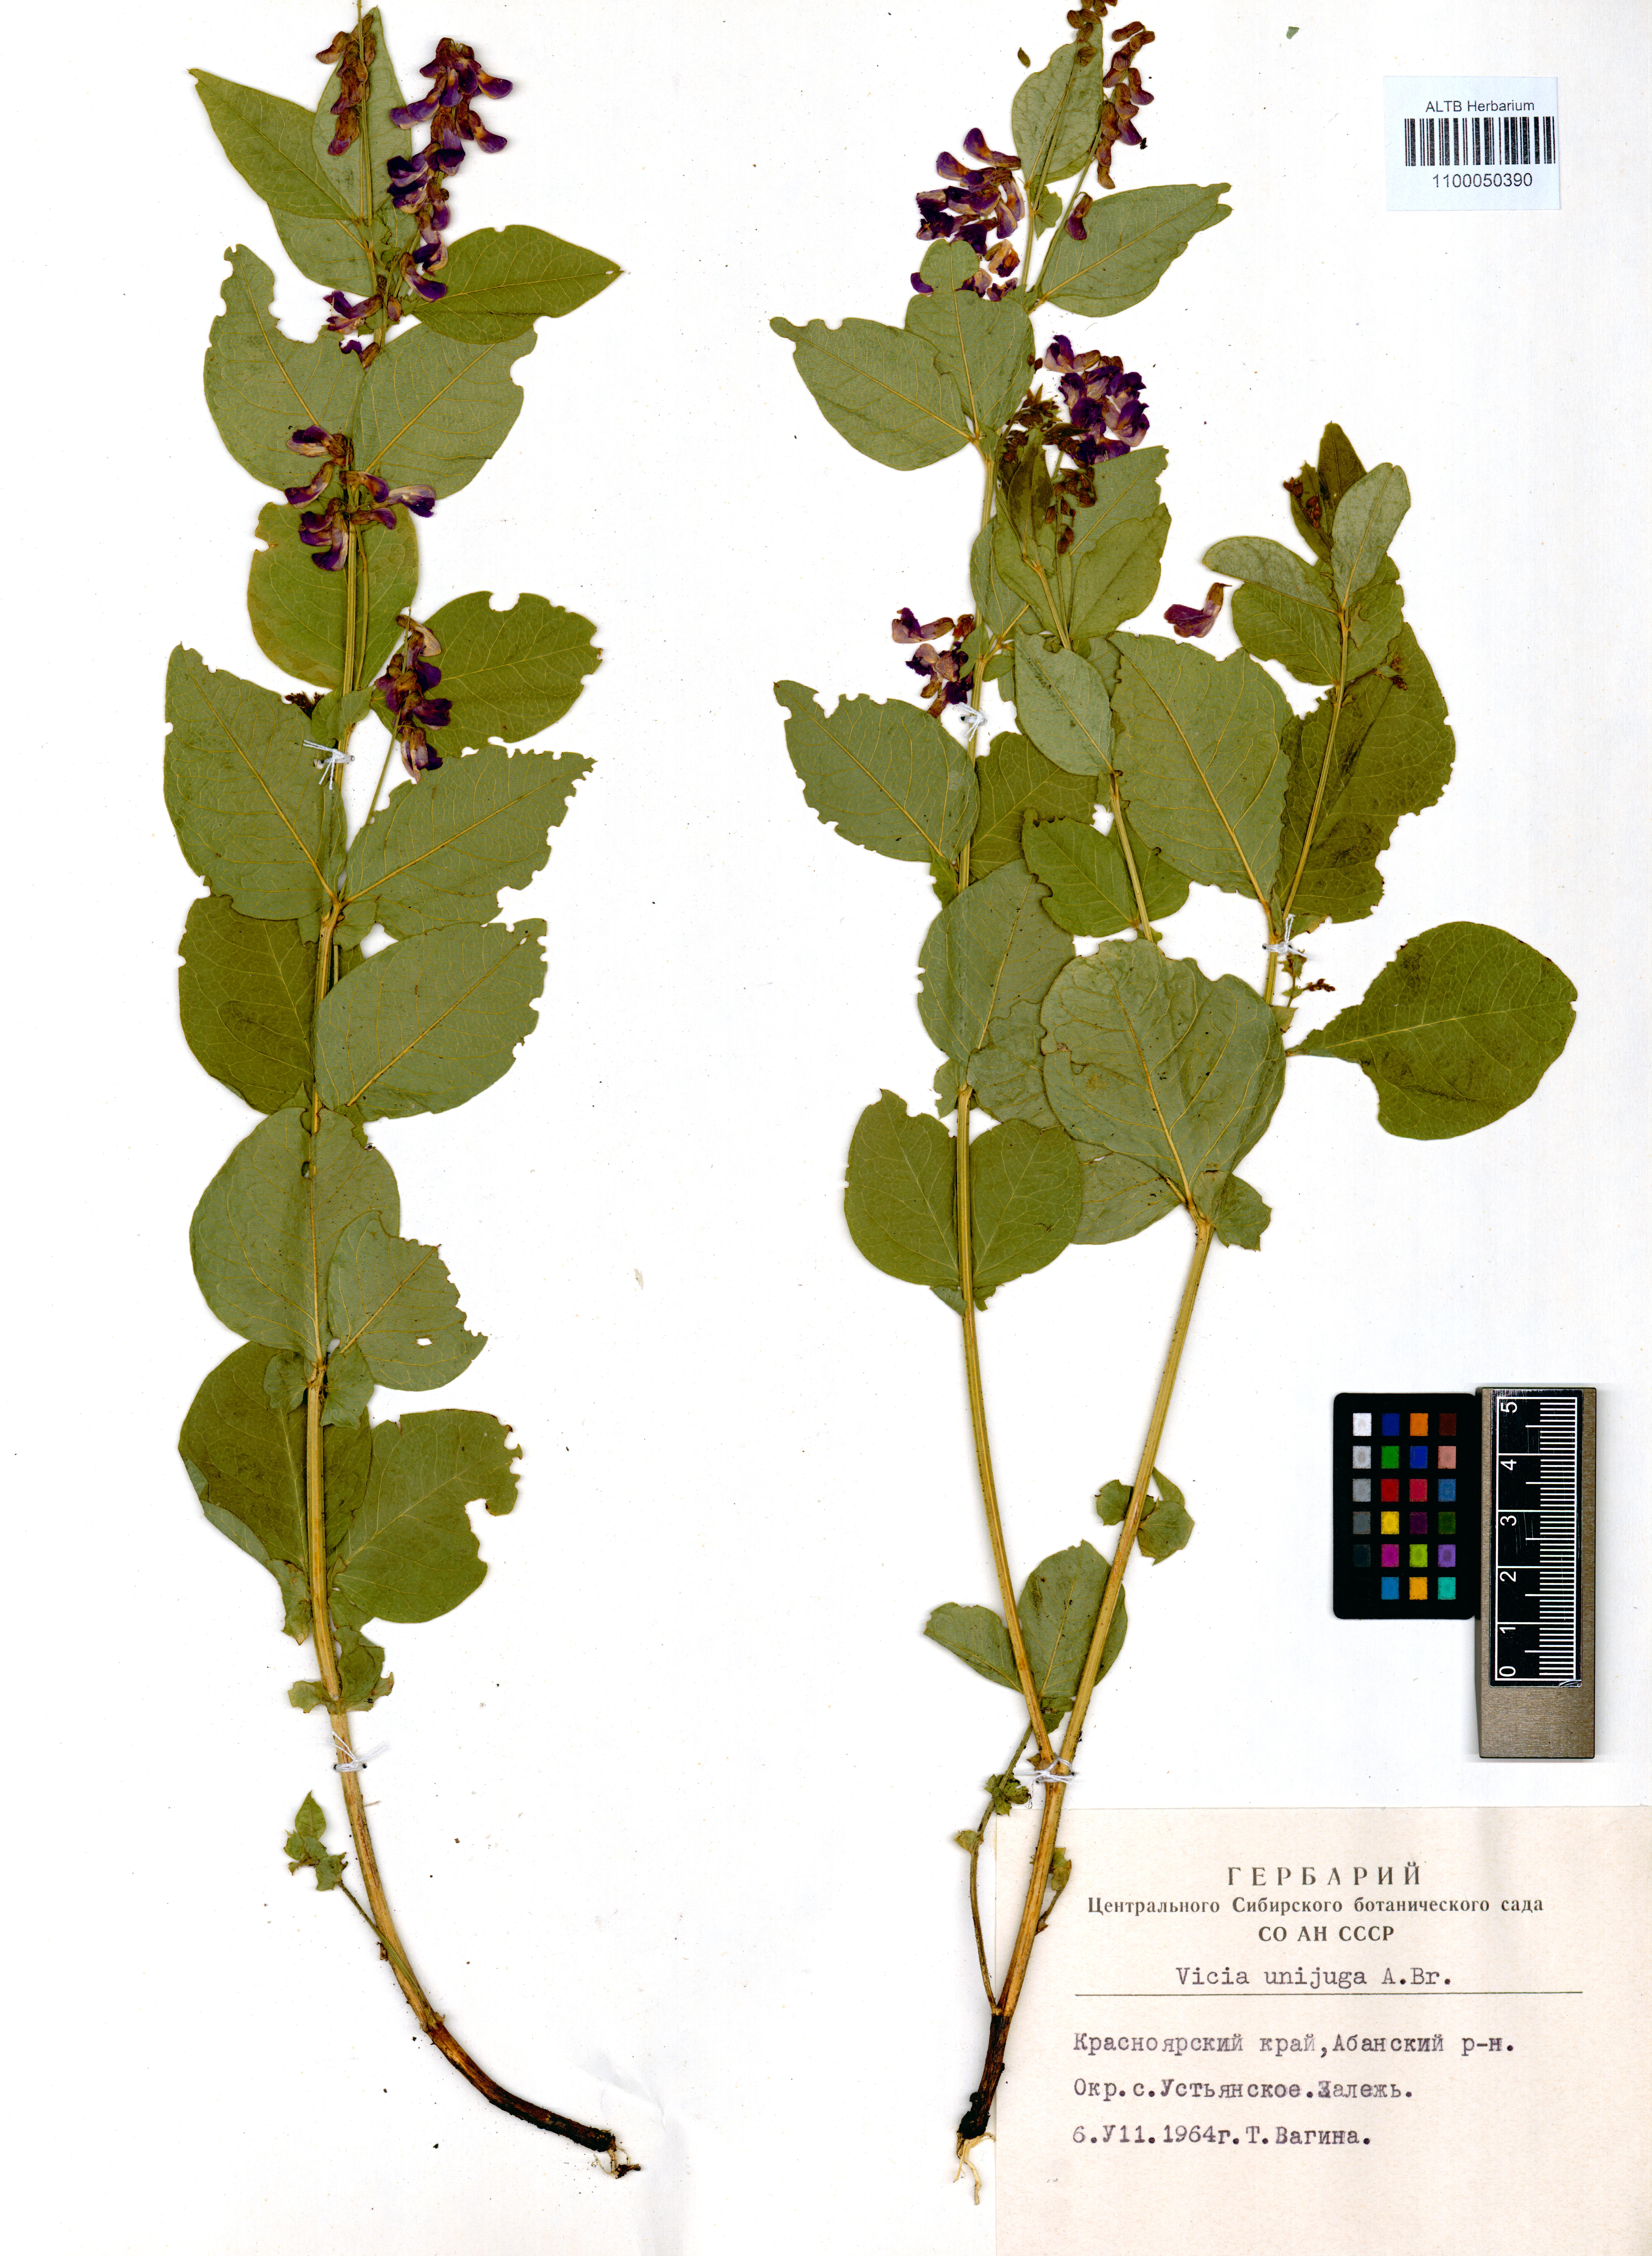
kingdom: Plantae
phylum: Tracheophyta
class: Magnoliopsida
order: Fabales
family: Fabaceae
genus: Vicia
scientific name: Vicia unijuga
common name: Two-leaf vetch
